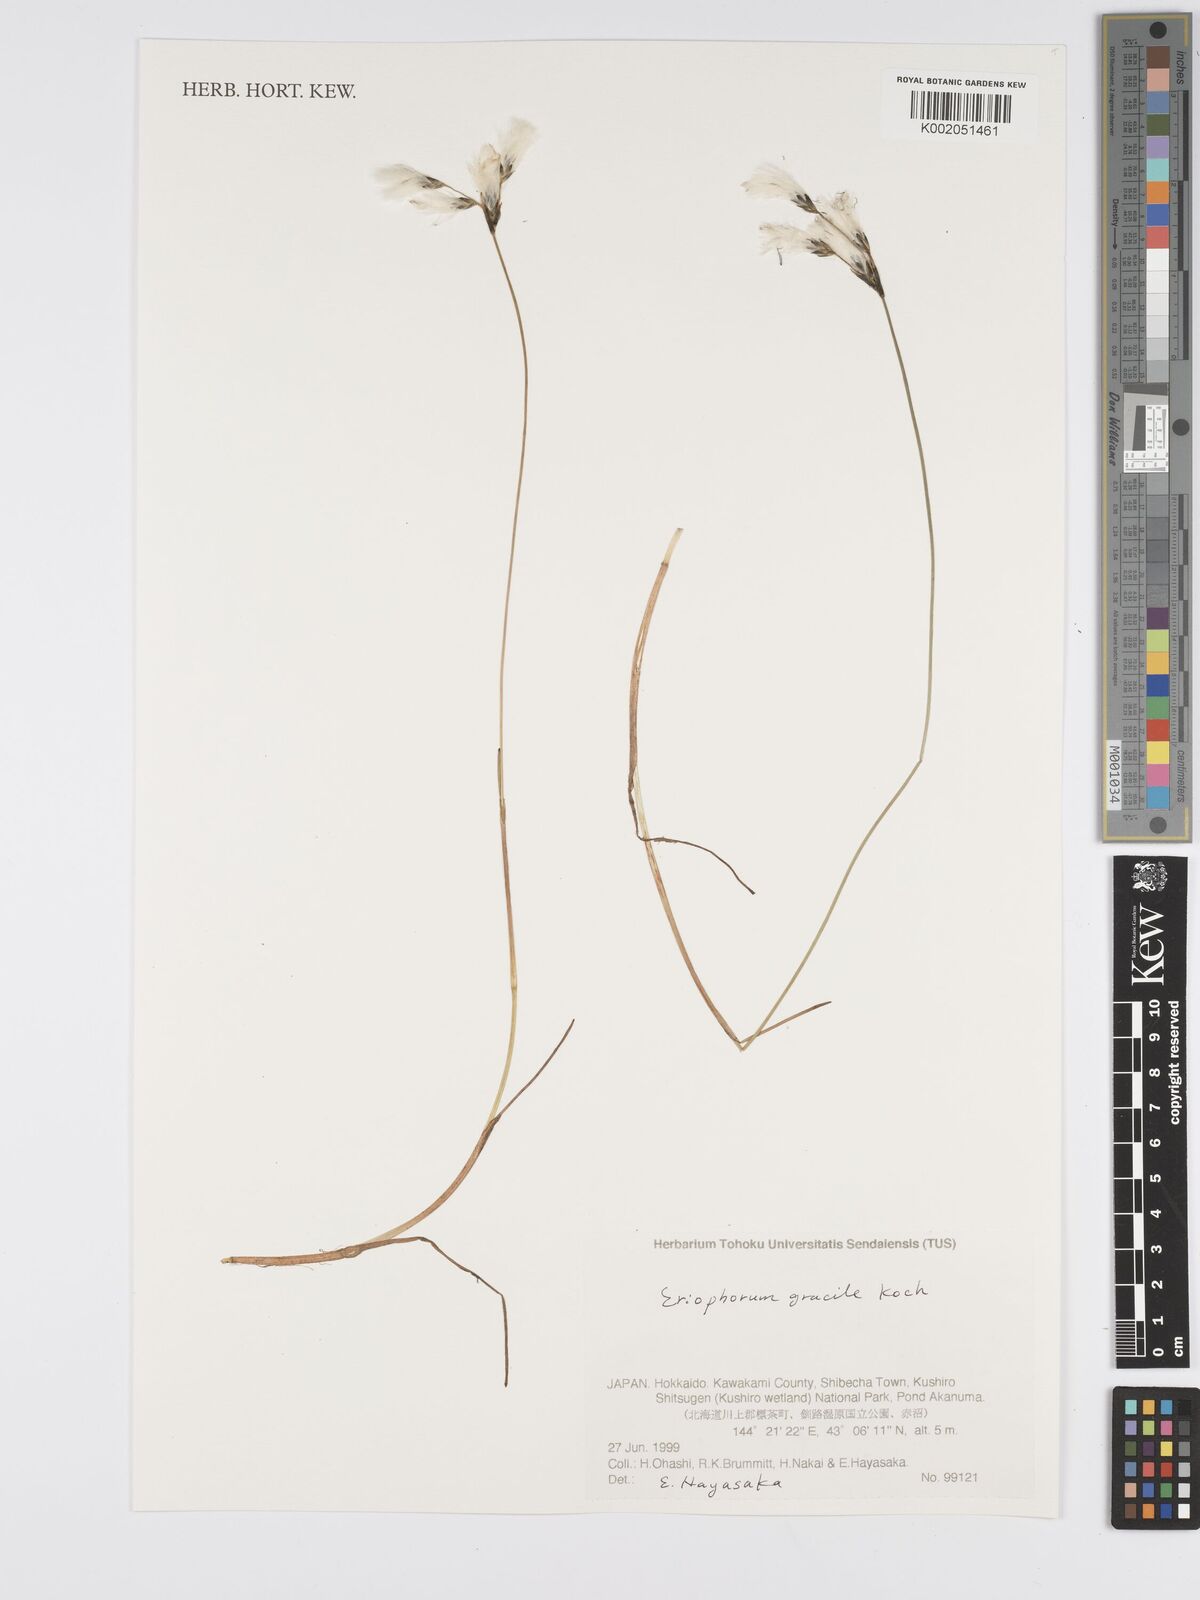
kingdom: Plantae
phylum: Tracheophyta
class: Liliopsida
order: Poales
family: Cyperaceae
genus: Eriophorum
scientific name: Eriophorum gracile
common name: Slender cottongrass
